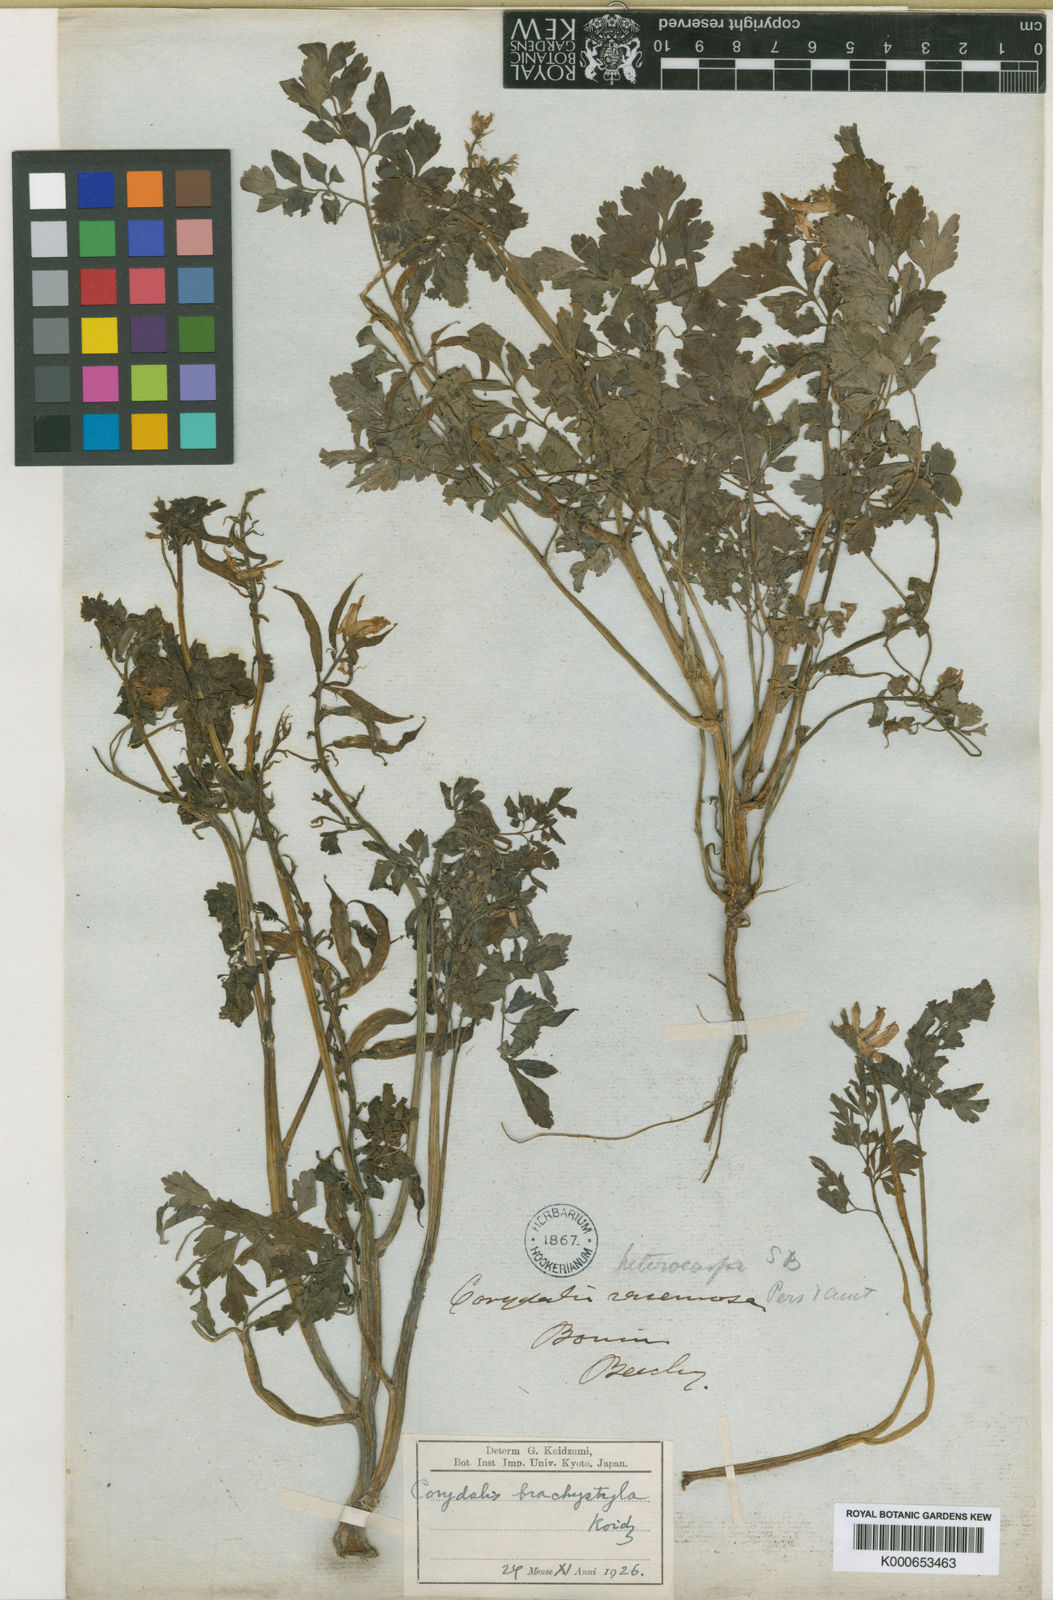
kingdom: Plantae
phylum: Tracheophyta
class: Magnoliopsida
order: Ranunculales
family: Papaveraceae
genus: Corydalis
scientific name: Corydalis orthopoda
